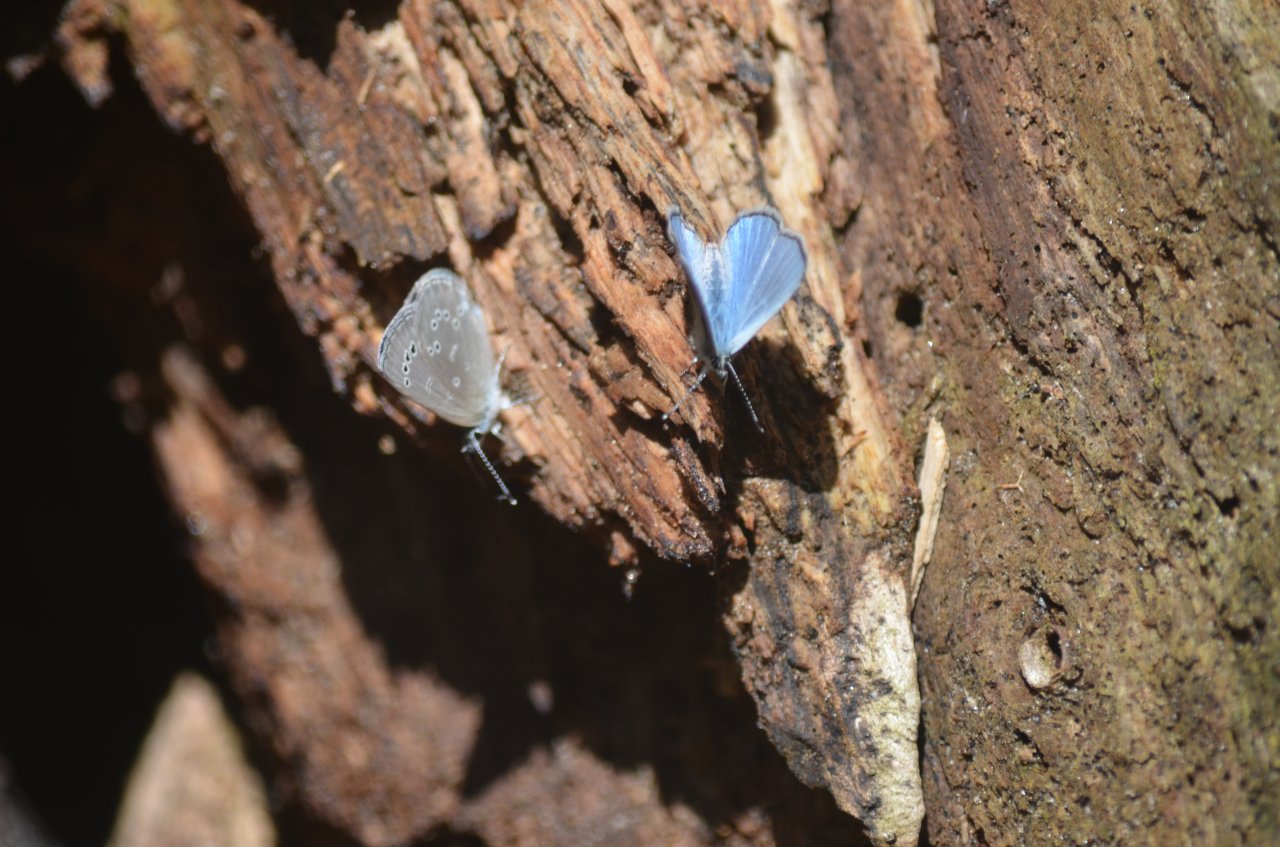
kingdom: Animalia
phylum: Arthropoda
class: Insecta
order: Lepidoptera
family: Lycaenidae
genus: Glaucopsyche
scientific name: Glaucopsyche lygdamus
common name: Silvery Blue
